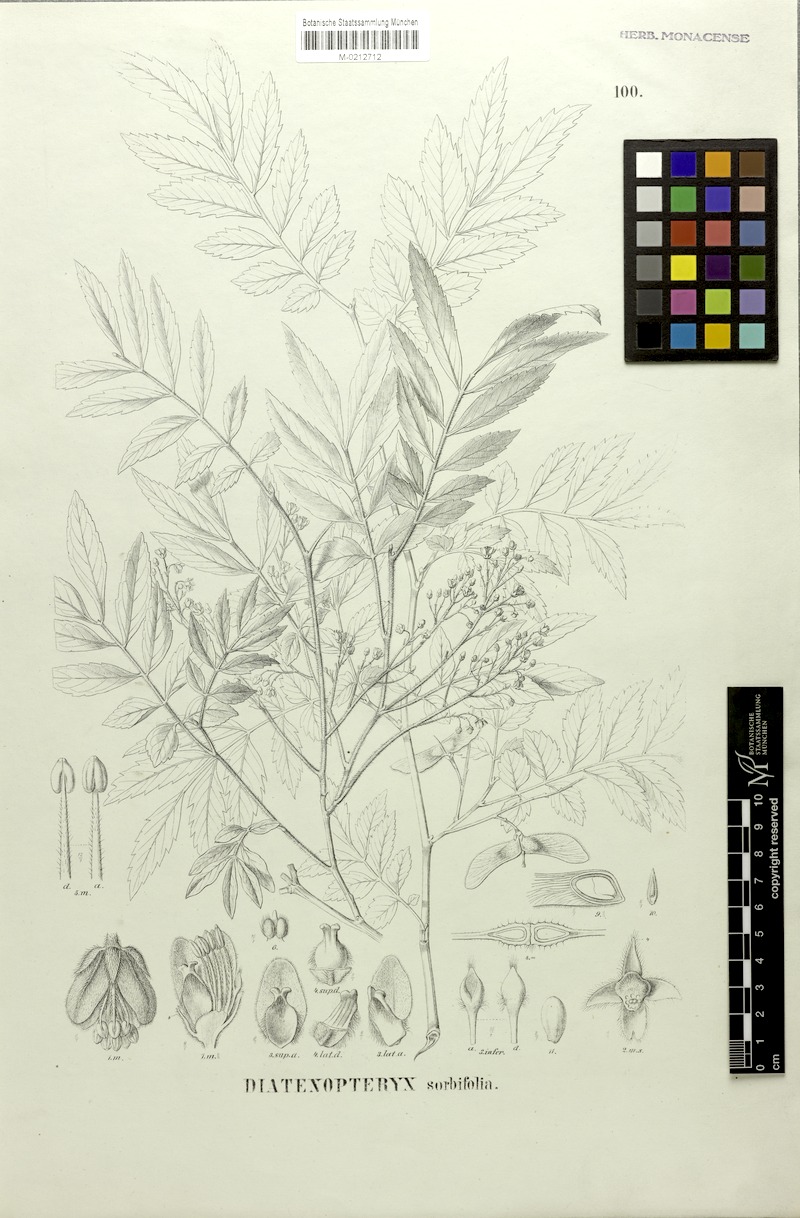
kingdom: Plantae
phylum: Tracheophyta
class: Magnoliopsida
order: Sapindales
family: Sapindaceae
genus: Diatenopteryx
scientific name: Diatenopteryx sorbifolia
